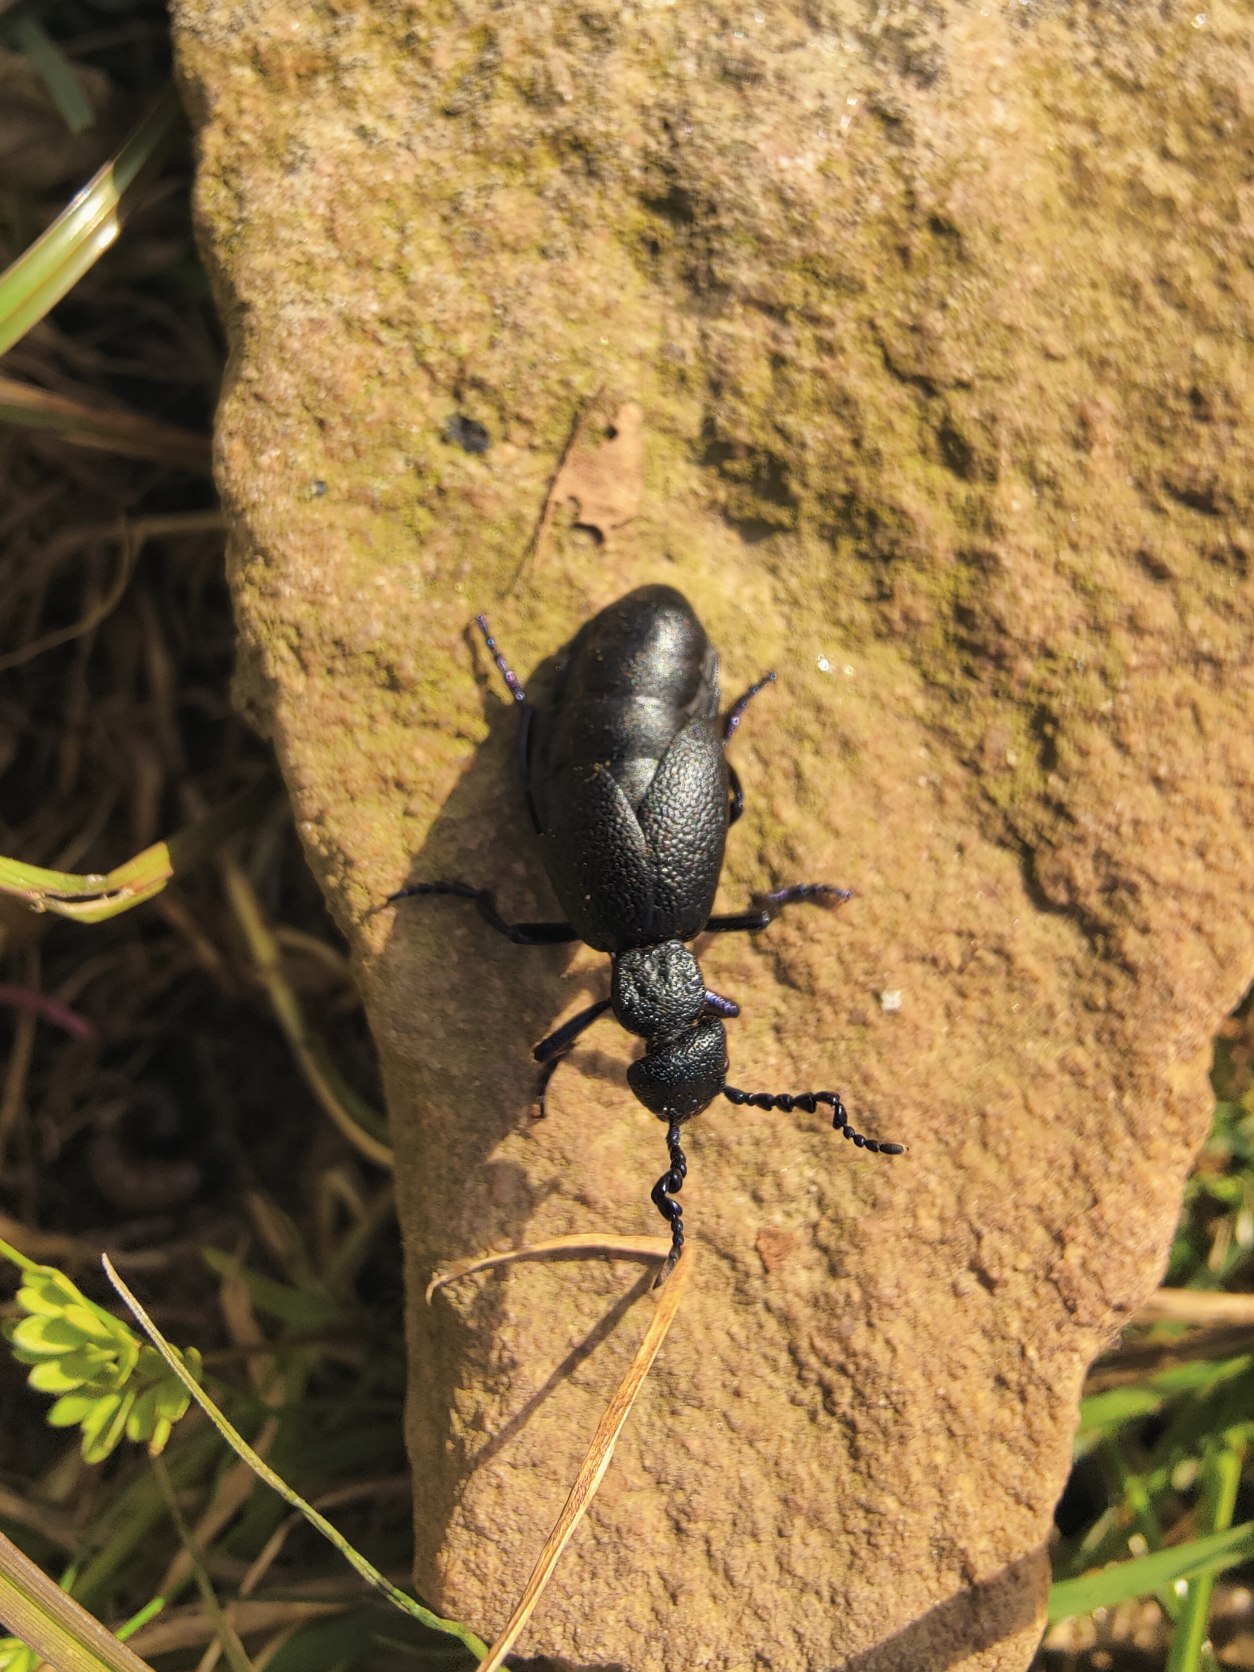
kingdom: Animalia
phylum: Arthropoda
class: Insecta
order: Coleoptera
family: Meloidae
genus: Meloe
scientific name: Meloe proscarabaeus
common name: Sort oliebille
